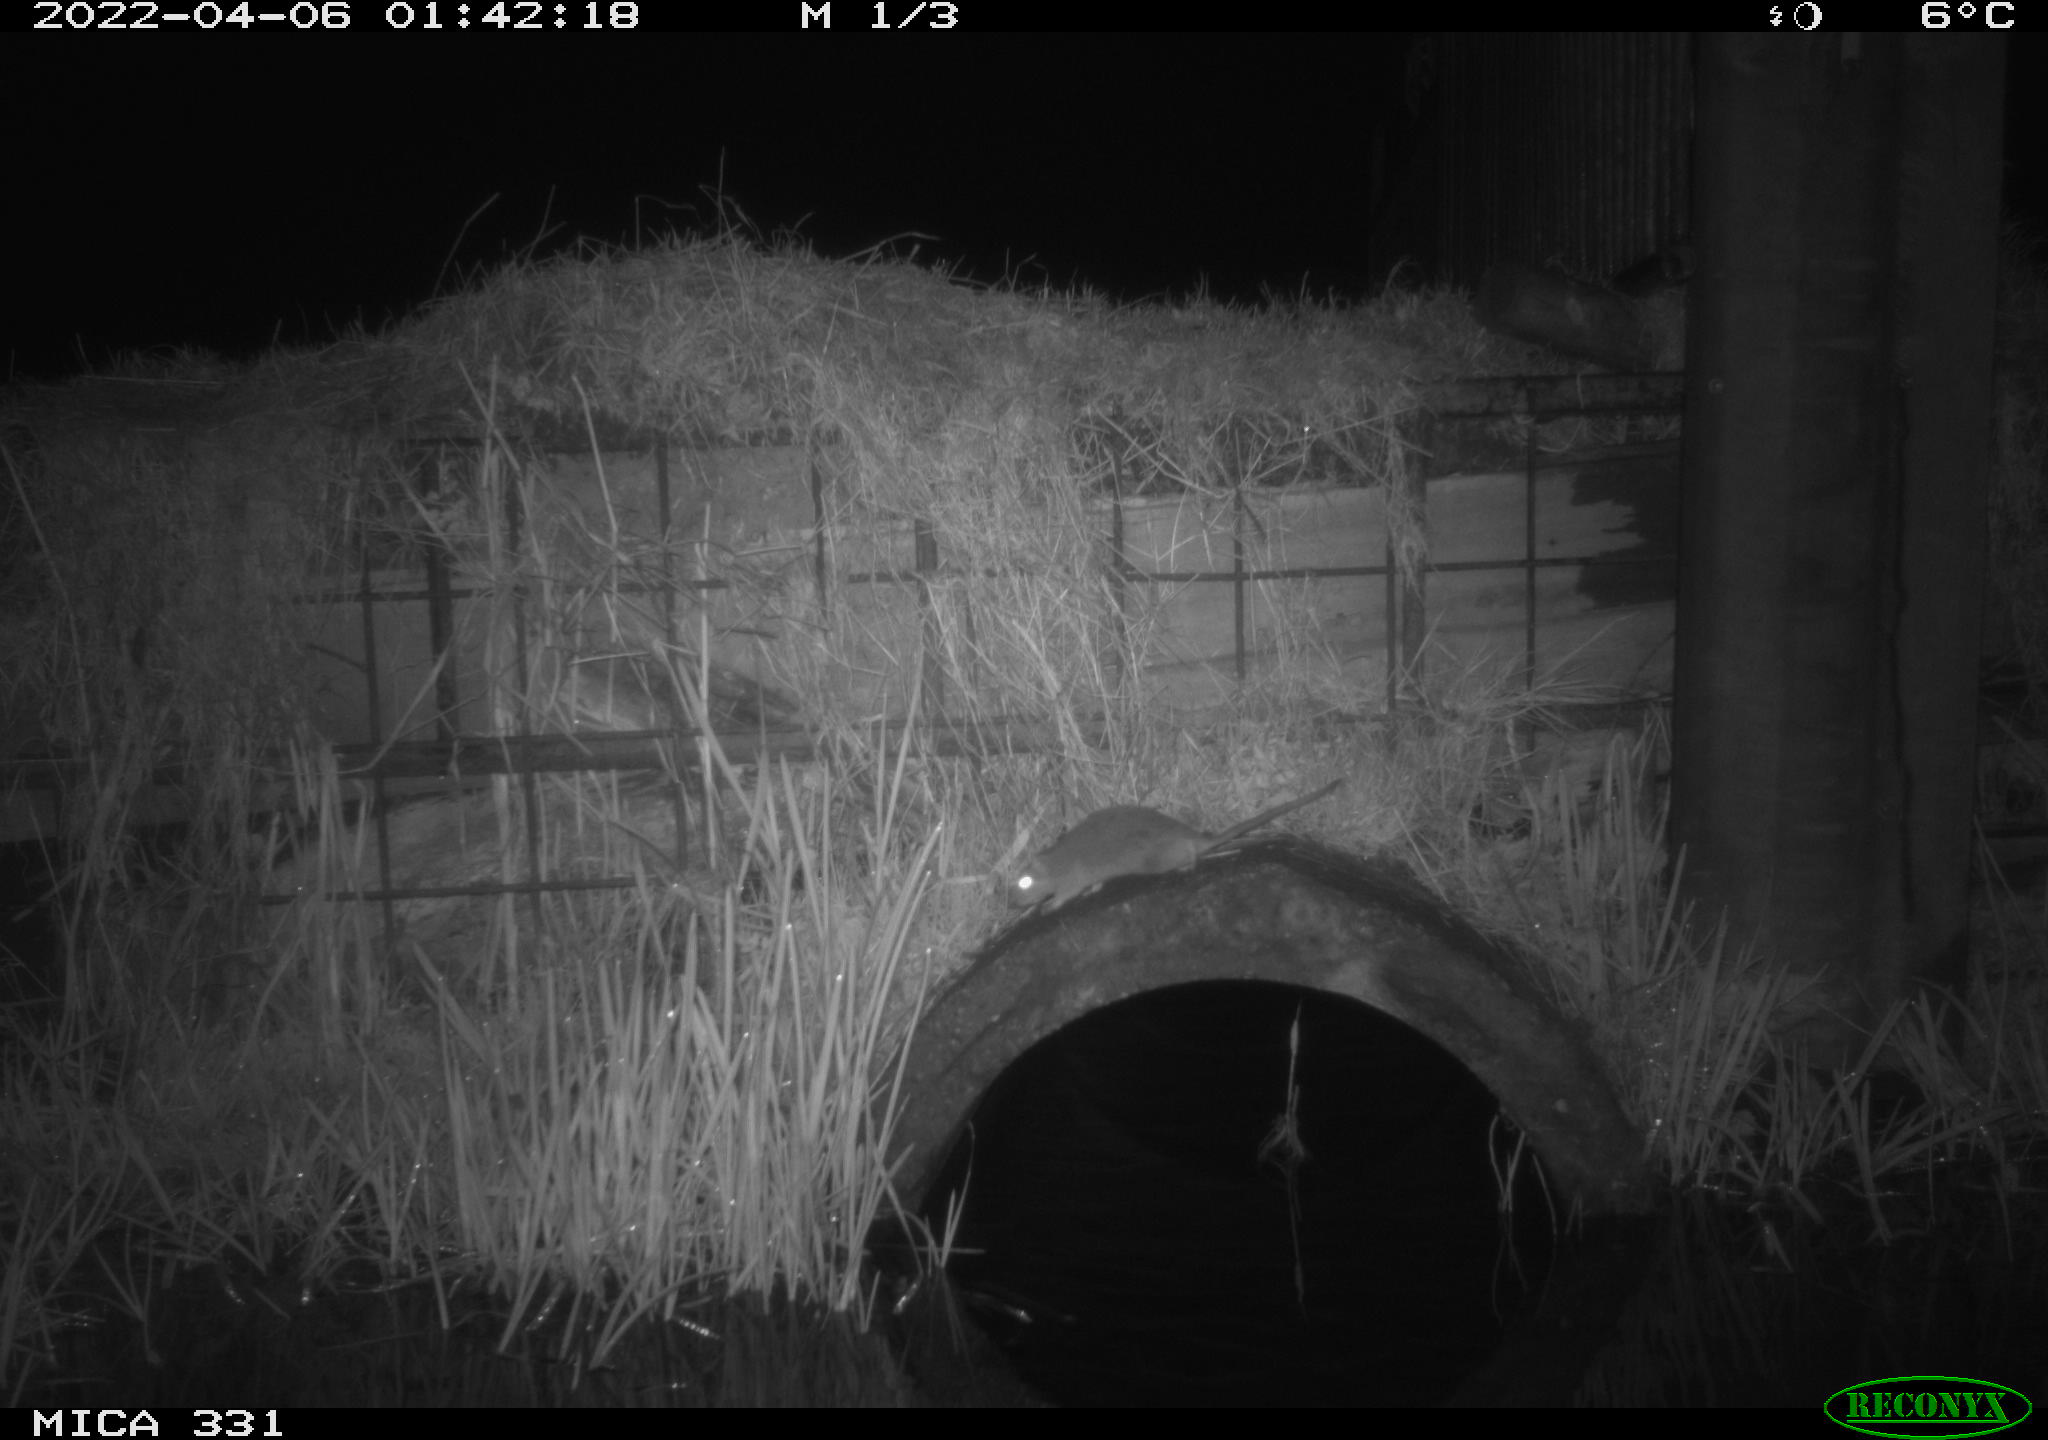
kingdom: Animalia
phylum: Chordata
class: Mammalia
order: Rodentia
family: Muridae
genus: Rattus
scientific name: Rattus norvegicus
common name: Brown rat
